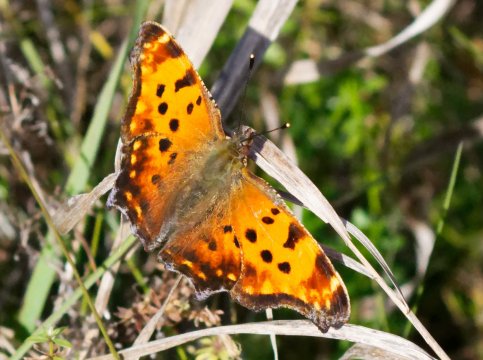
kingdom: Animalia
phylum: Arthropoda
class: Insecta
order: Lepidoptera
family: Nymphalidae
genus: Polygonia
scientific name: Polygonia comma
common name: Eastern Comma
